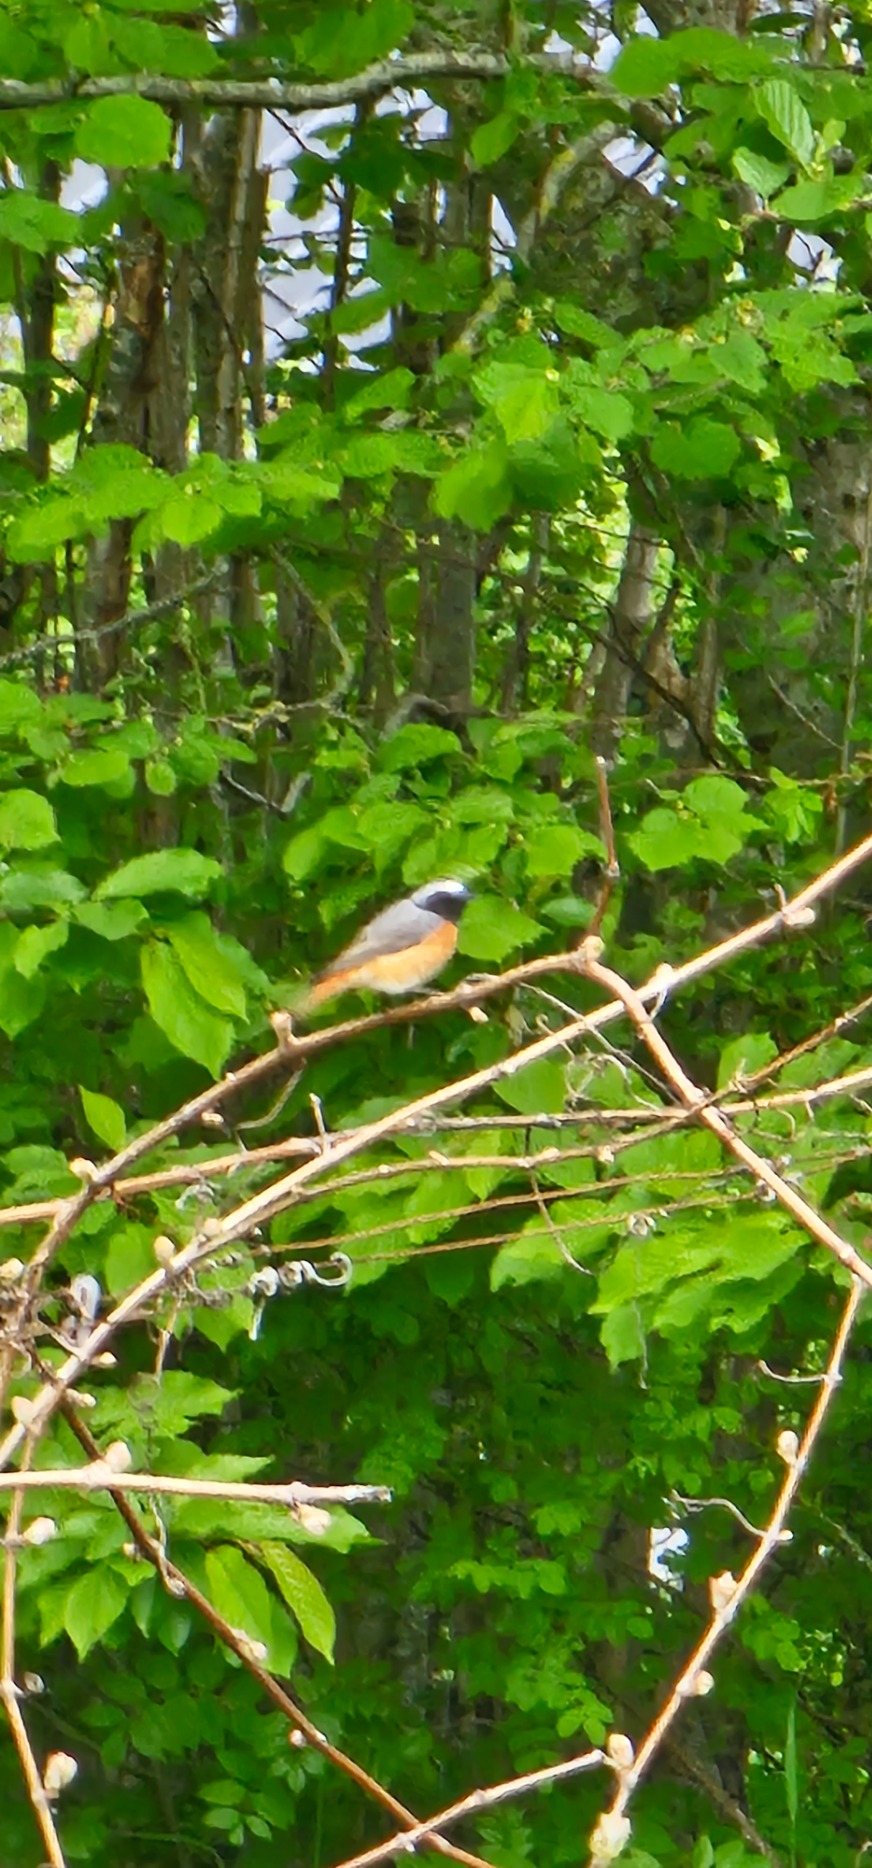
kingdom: Animalia
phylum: Chordata
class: Aves
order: Passeriformes
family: Muscicapidae
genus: Phoenicurus
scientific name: Phoenicurus phoenicurus
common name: Rødstjert
